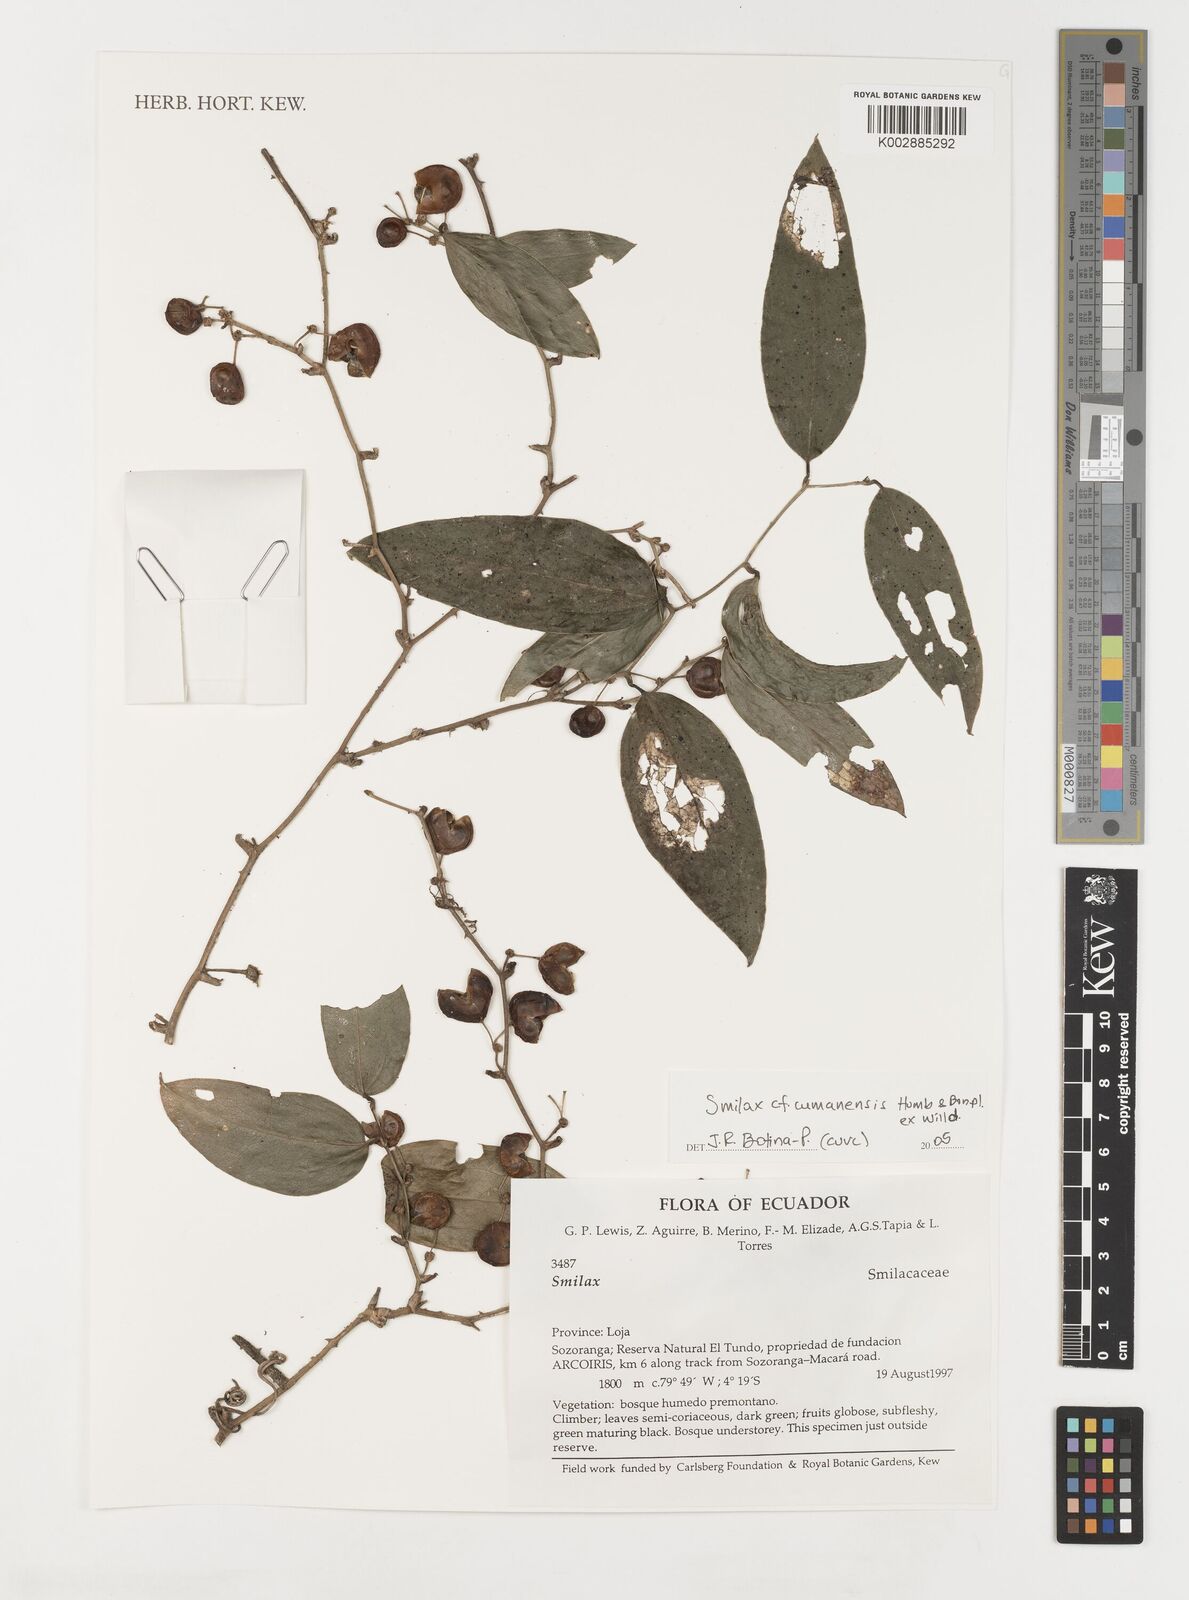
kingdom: Plantae
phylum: Tracheophyta
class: Liliopsida
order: Liliales
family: Smilacaceae
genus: Smilax
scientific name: Smilax oblongata
